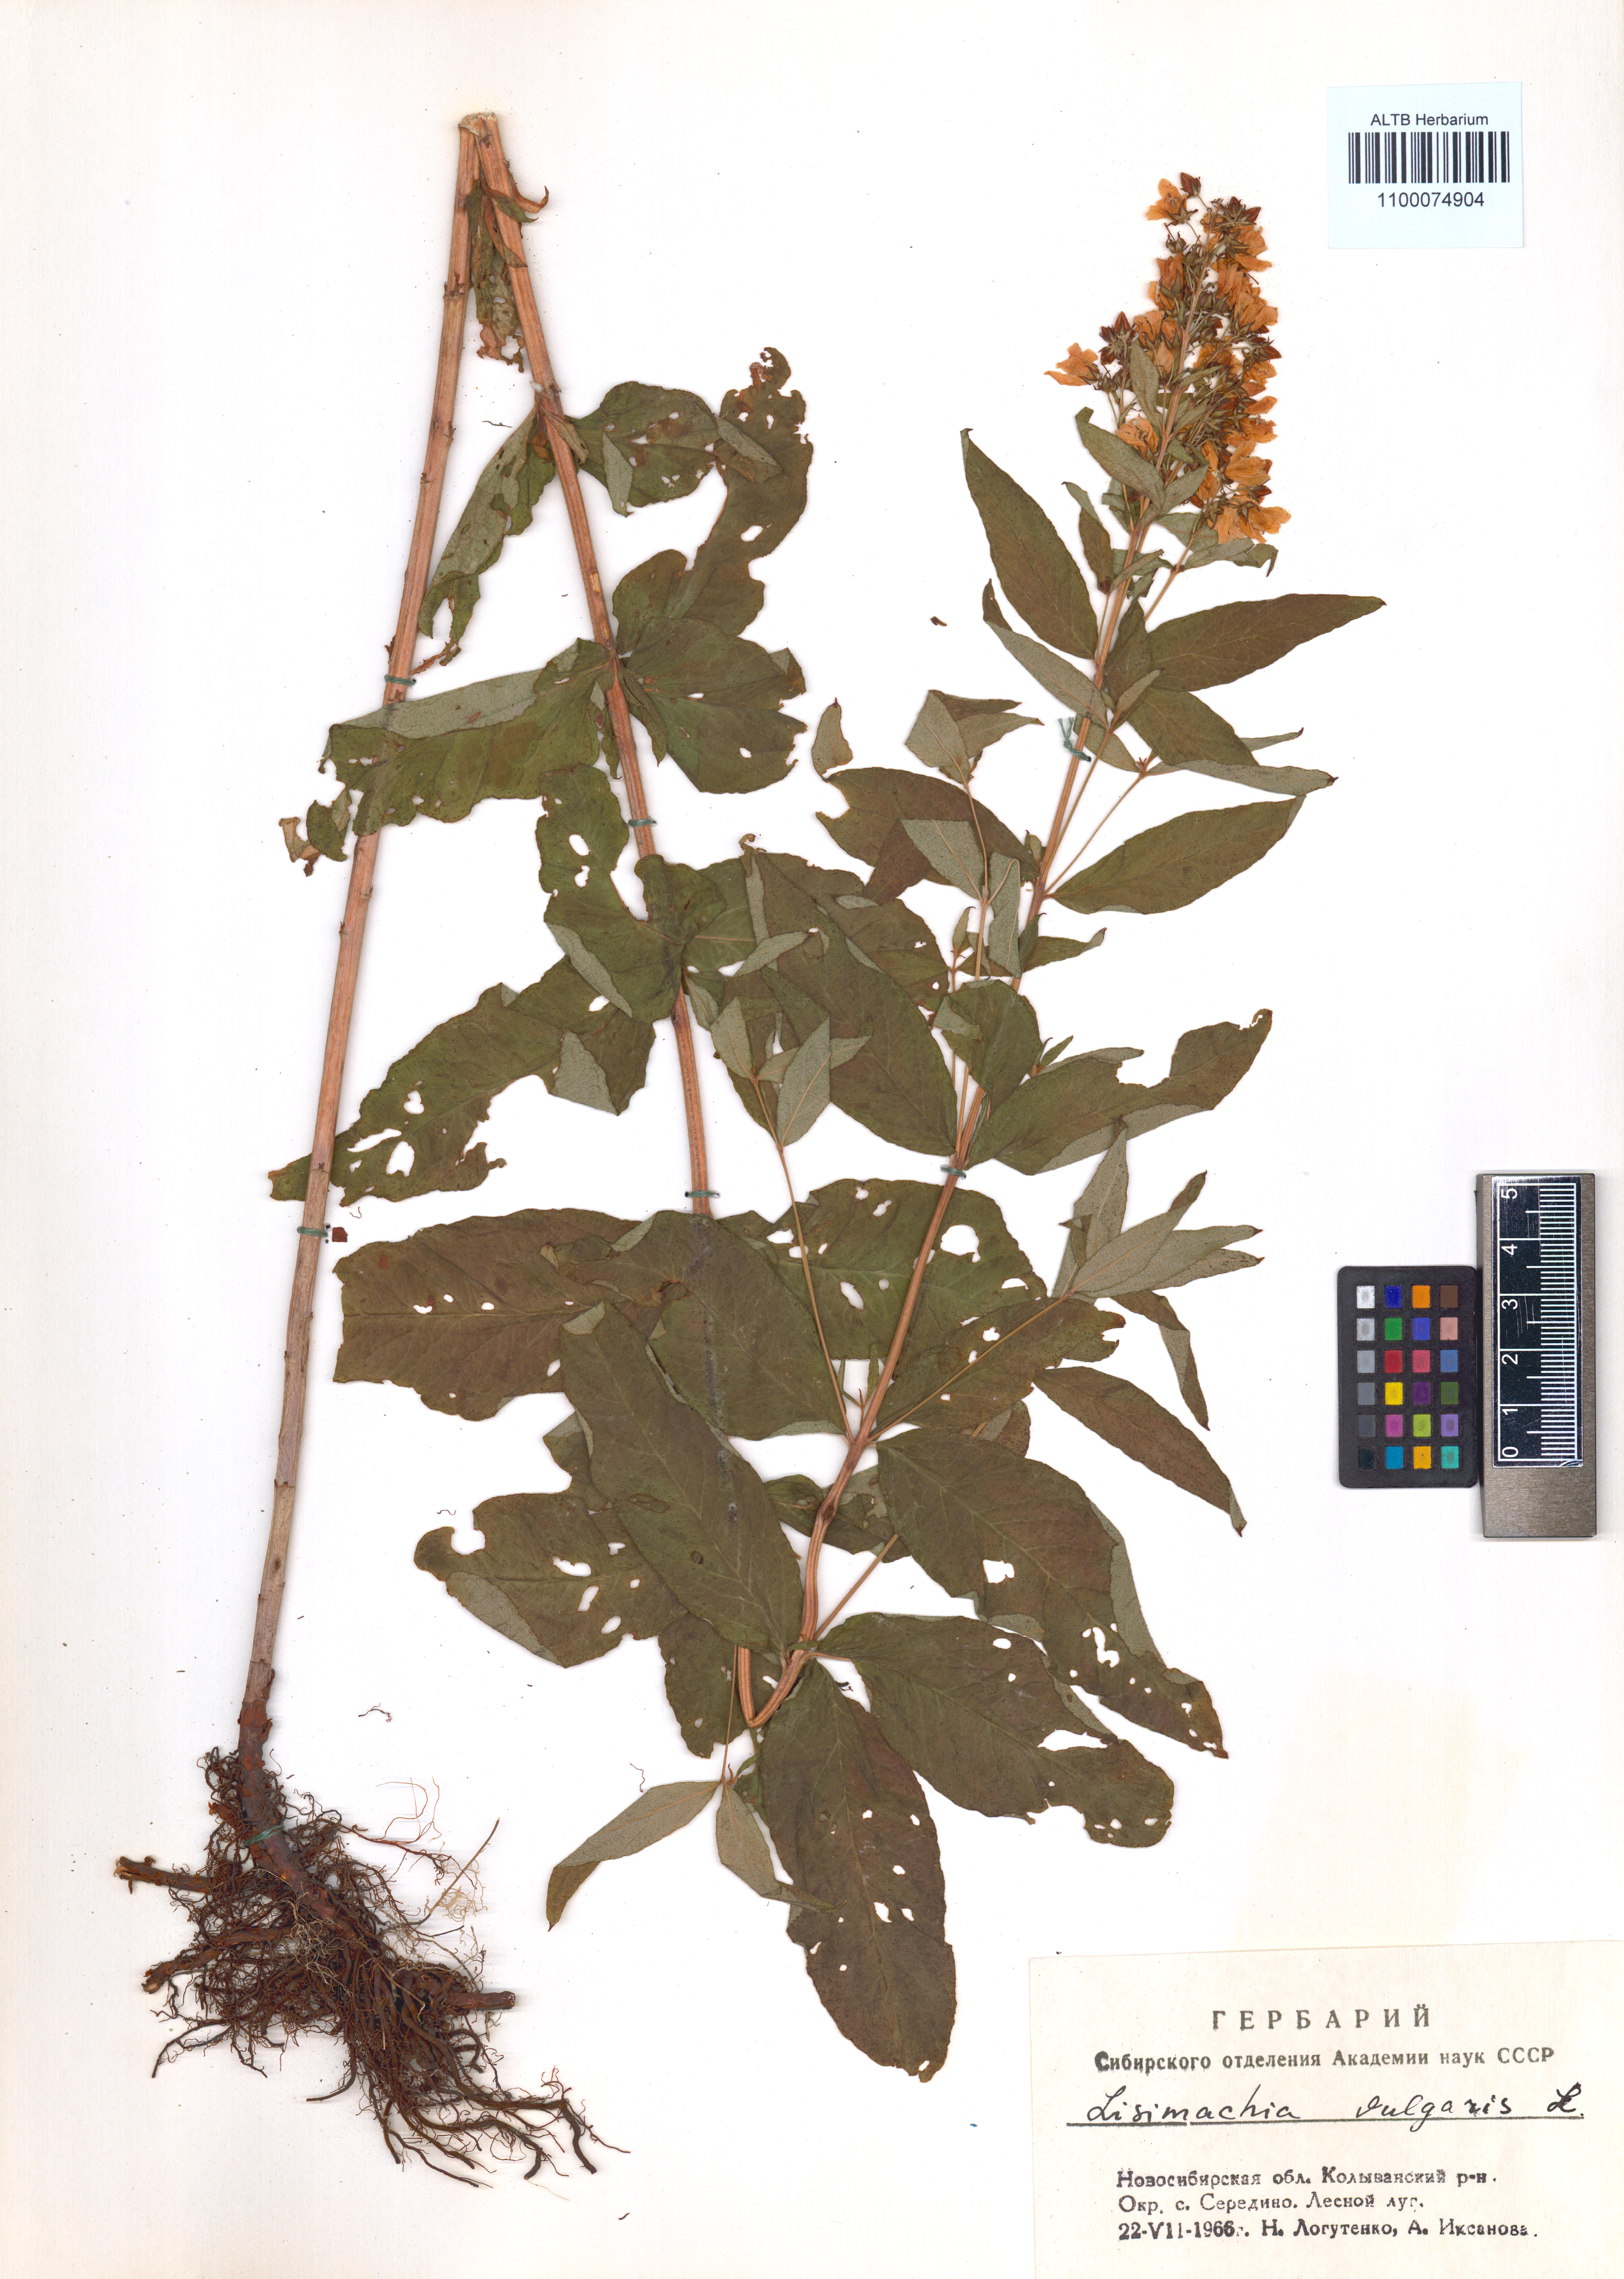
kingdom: Plantae
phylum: Tracheophyta
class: Magnoliopsida
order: Ericales
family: Primulaceae
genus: Lysimachia
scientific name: Lysimachia vulgaris
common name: Yellow loosestrife
